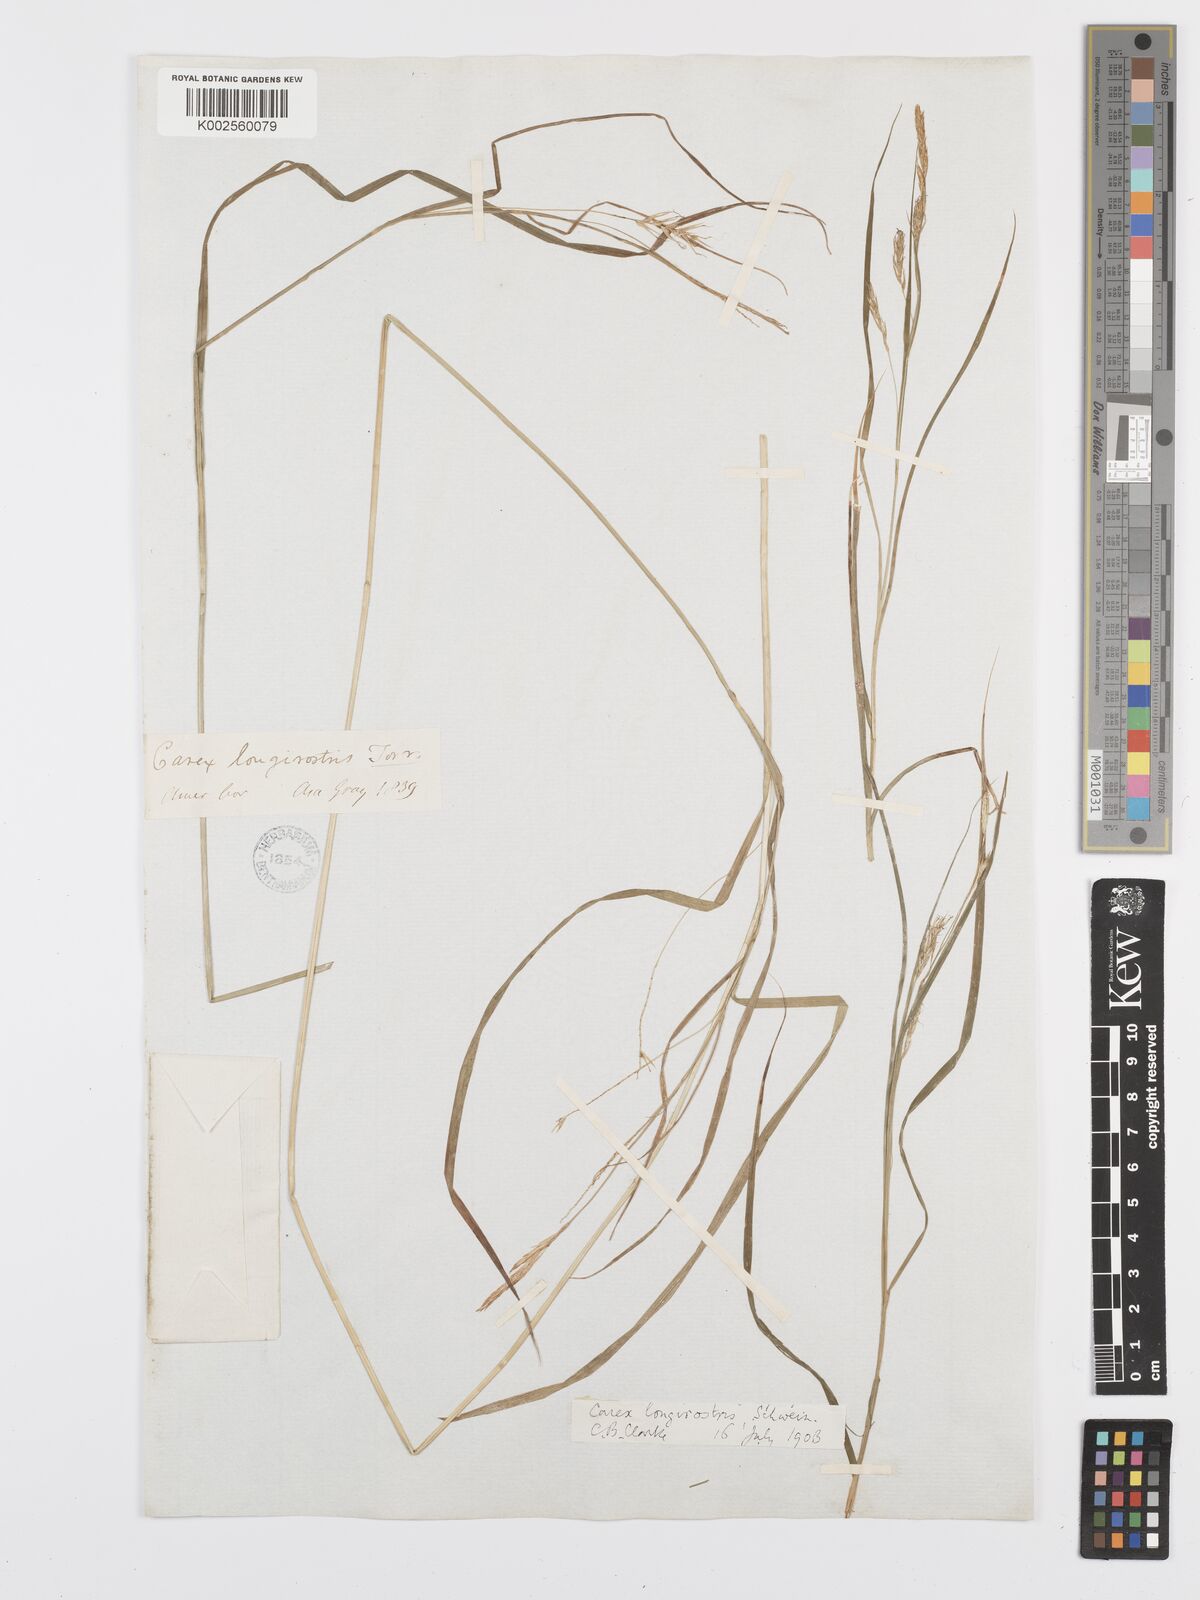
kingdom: Plantae
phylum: Tracheophyta
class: Liliopsida
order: Poales
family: Cyperaceae
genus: Carex
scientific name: Carex sprengelii
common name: Long-beaked sedge
